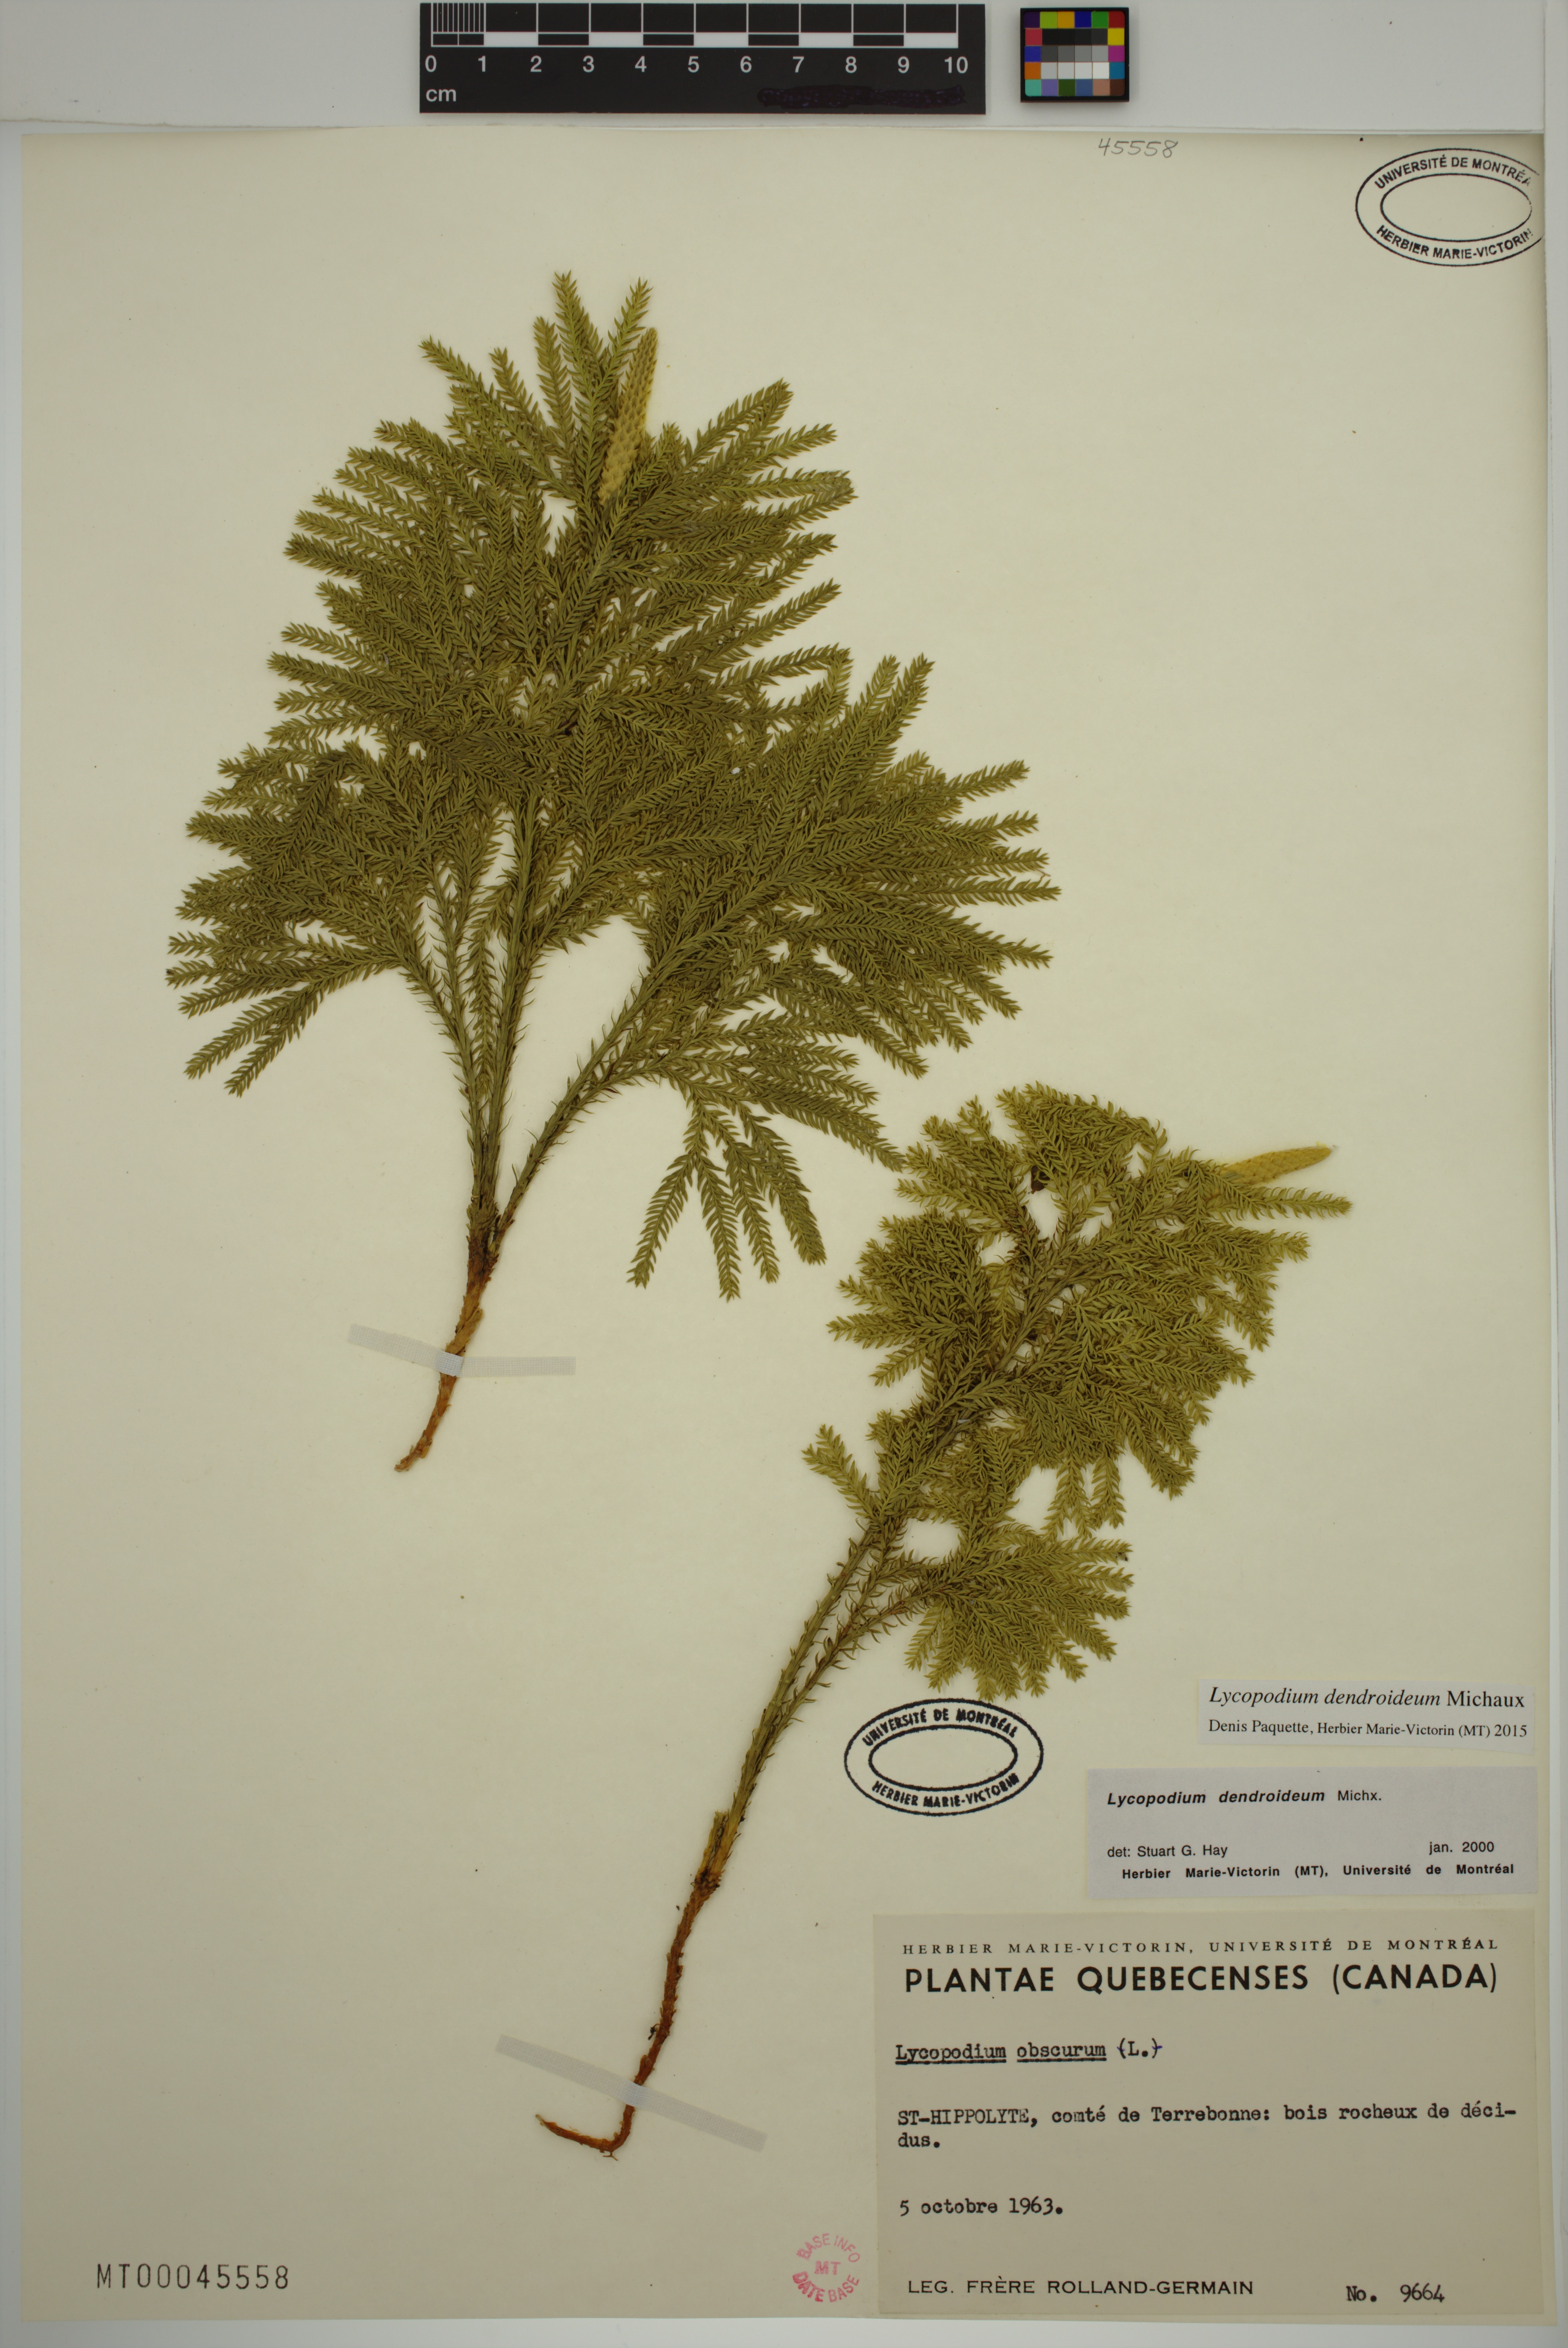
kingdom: Plantae
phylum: Tracheophyta
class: Lycopodiopsida
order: Lycopodiales
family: Lycopodiaceae
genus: Dendrolycopodium
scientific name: Dendrolycopodium dendroideum
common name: Northern tree-clubmoss
